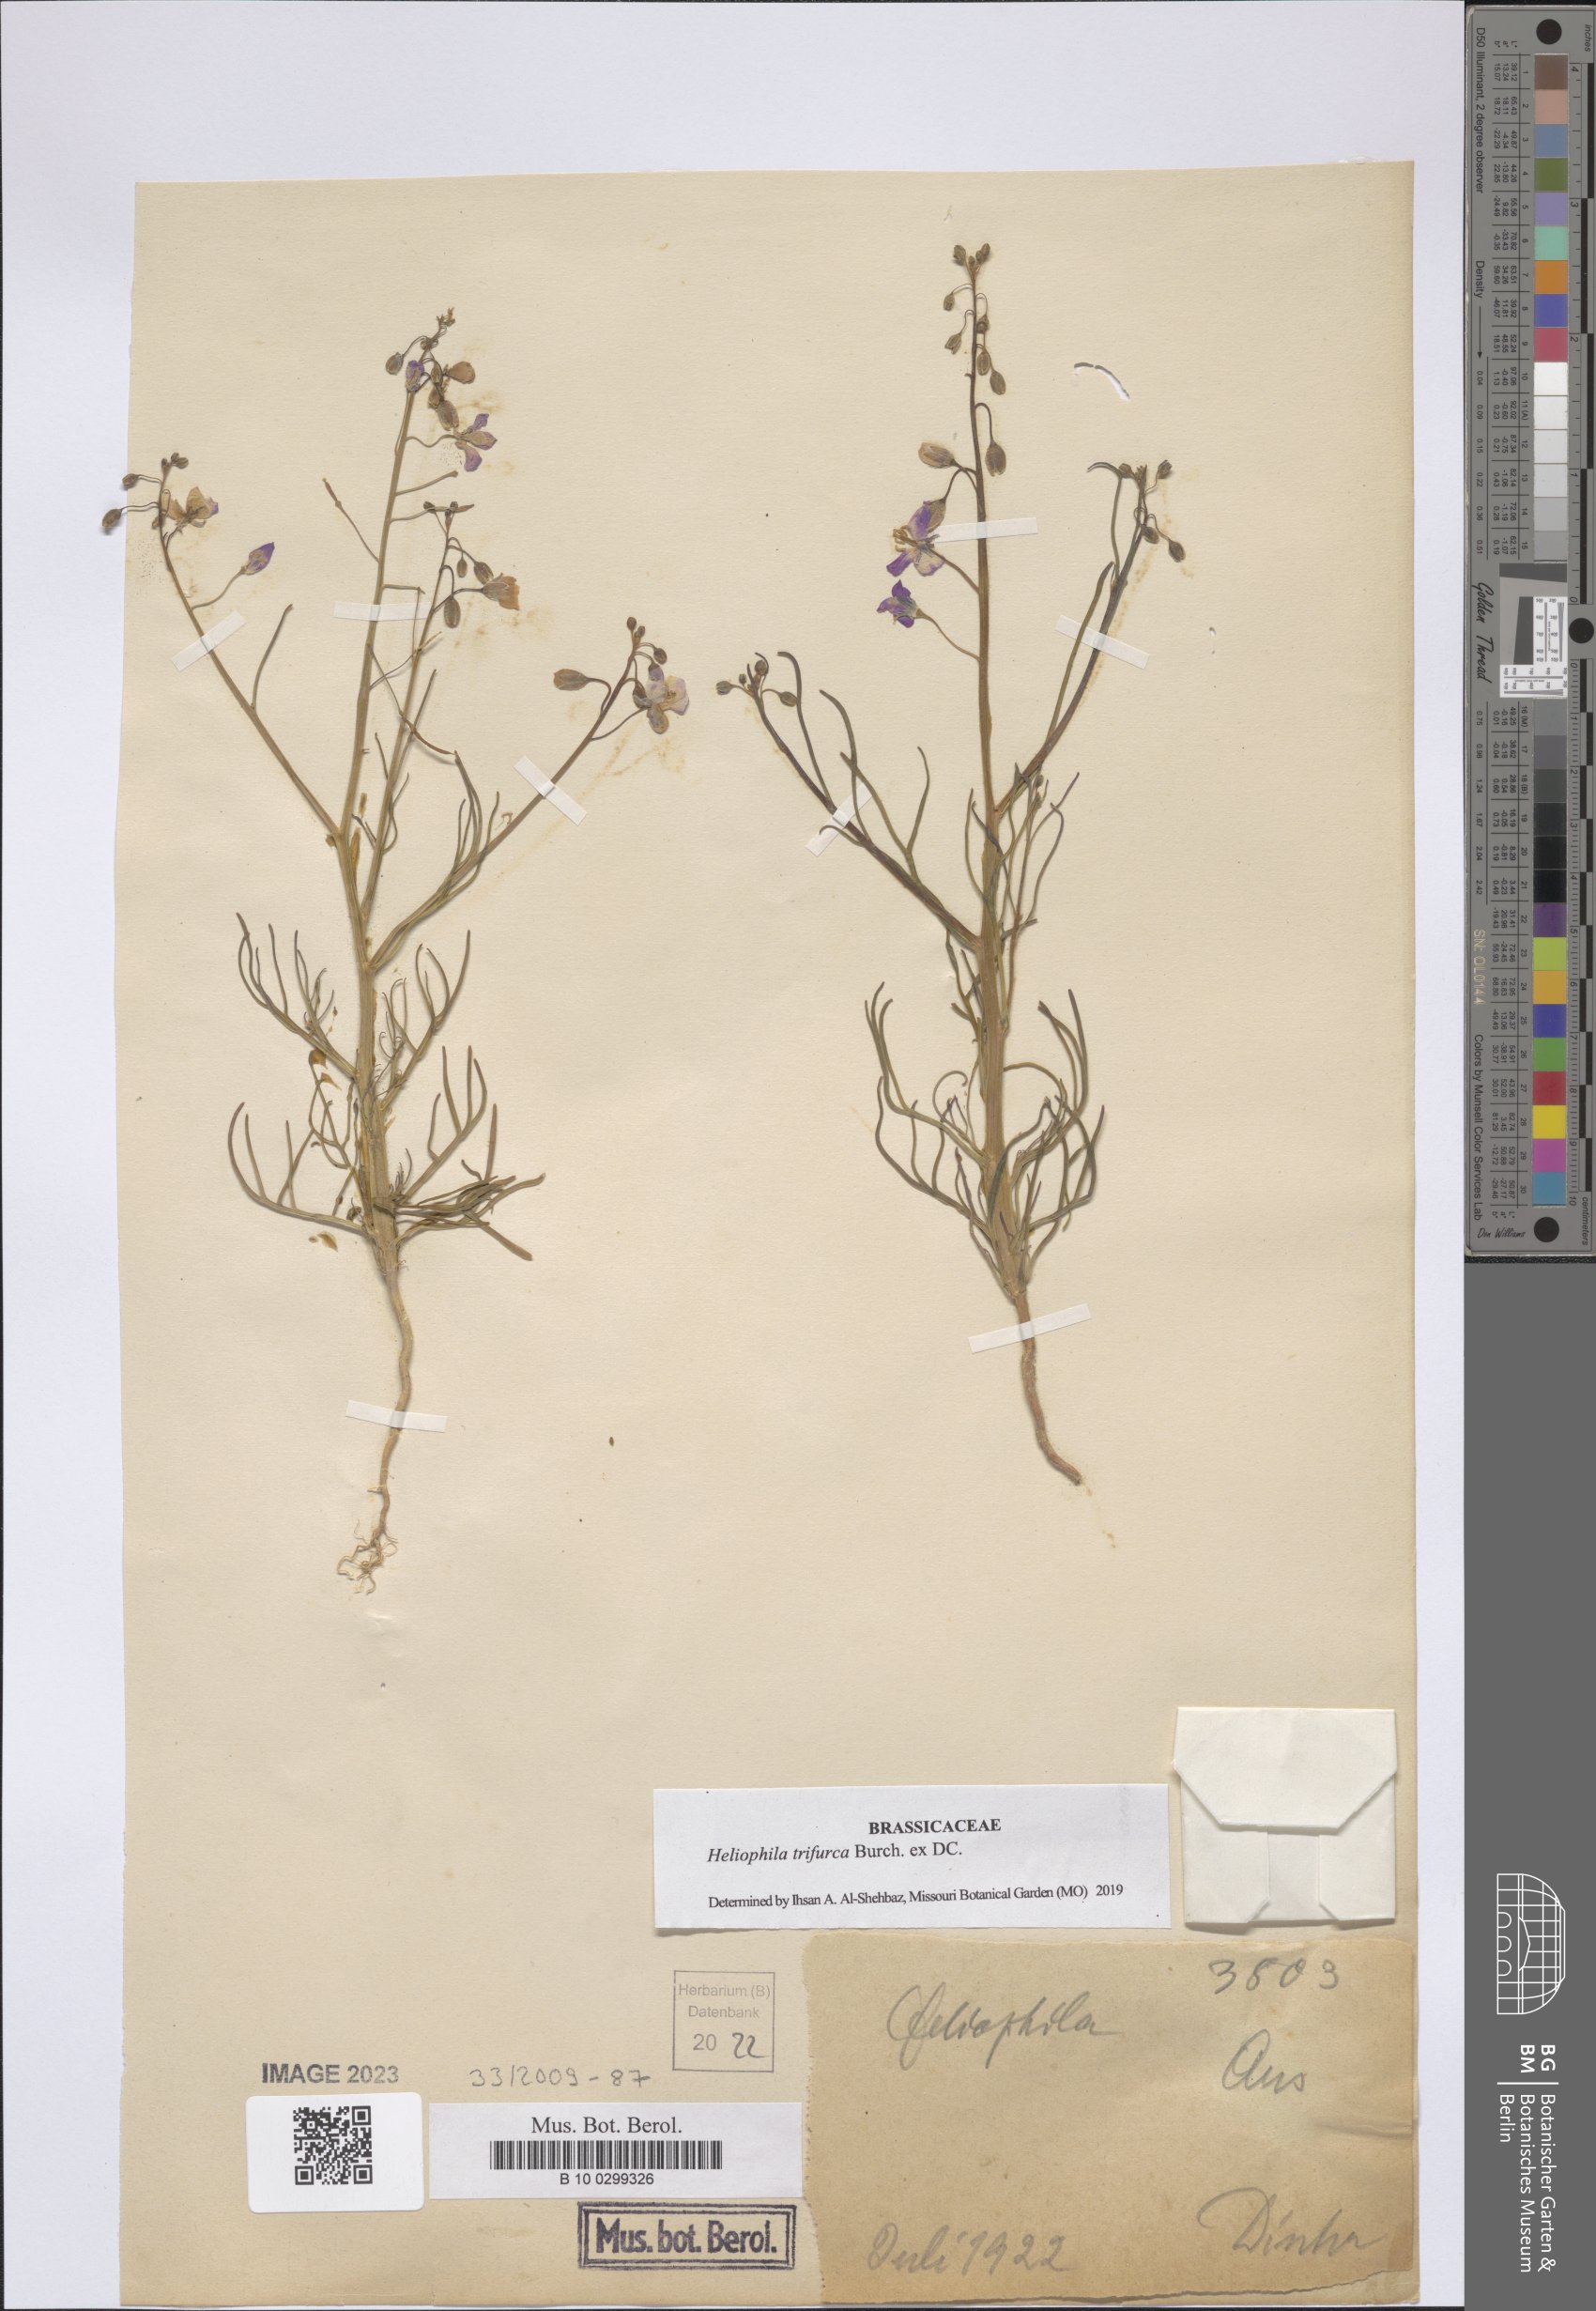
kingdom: Plantae
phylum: Tracheophyta
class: Magnoliopsida
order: Brassicales
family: Brassicaceae
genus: Heliophila
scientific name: Heliophila trifurca
